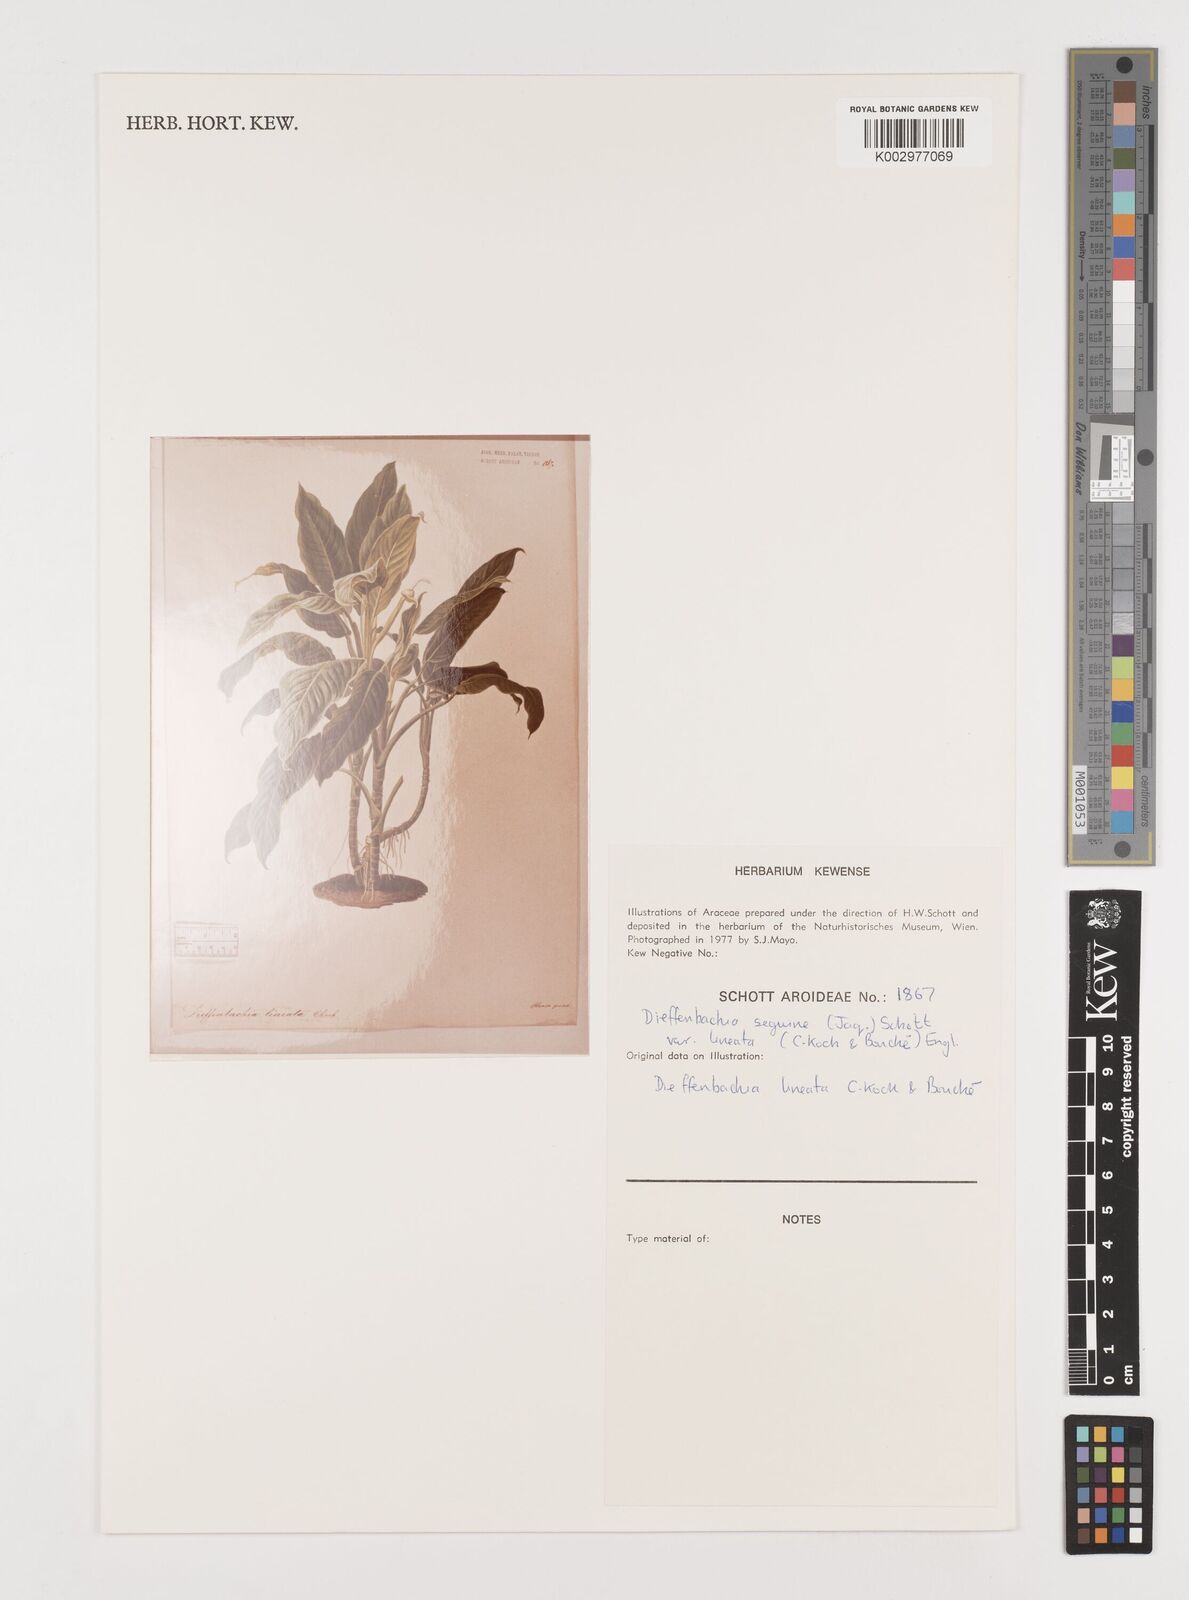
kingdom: Plantae
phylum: Tracheophyta
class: Liliopsida
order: Alismatales
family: Araceae
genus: Dieffenbachia
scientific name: Dieffenbachia seguine
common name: Dumbcane
